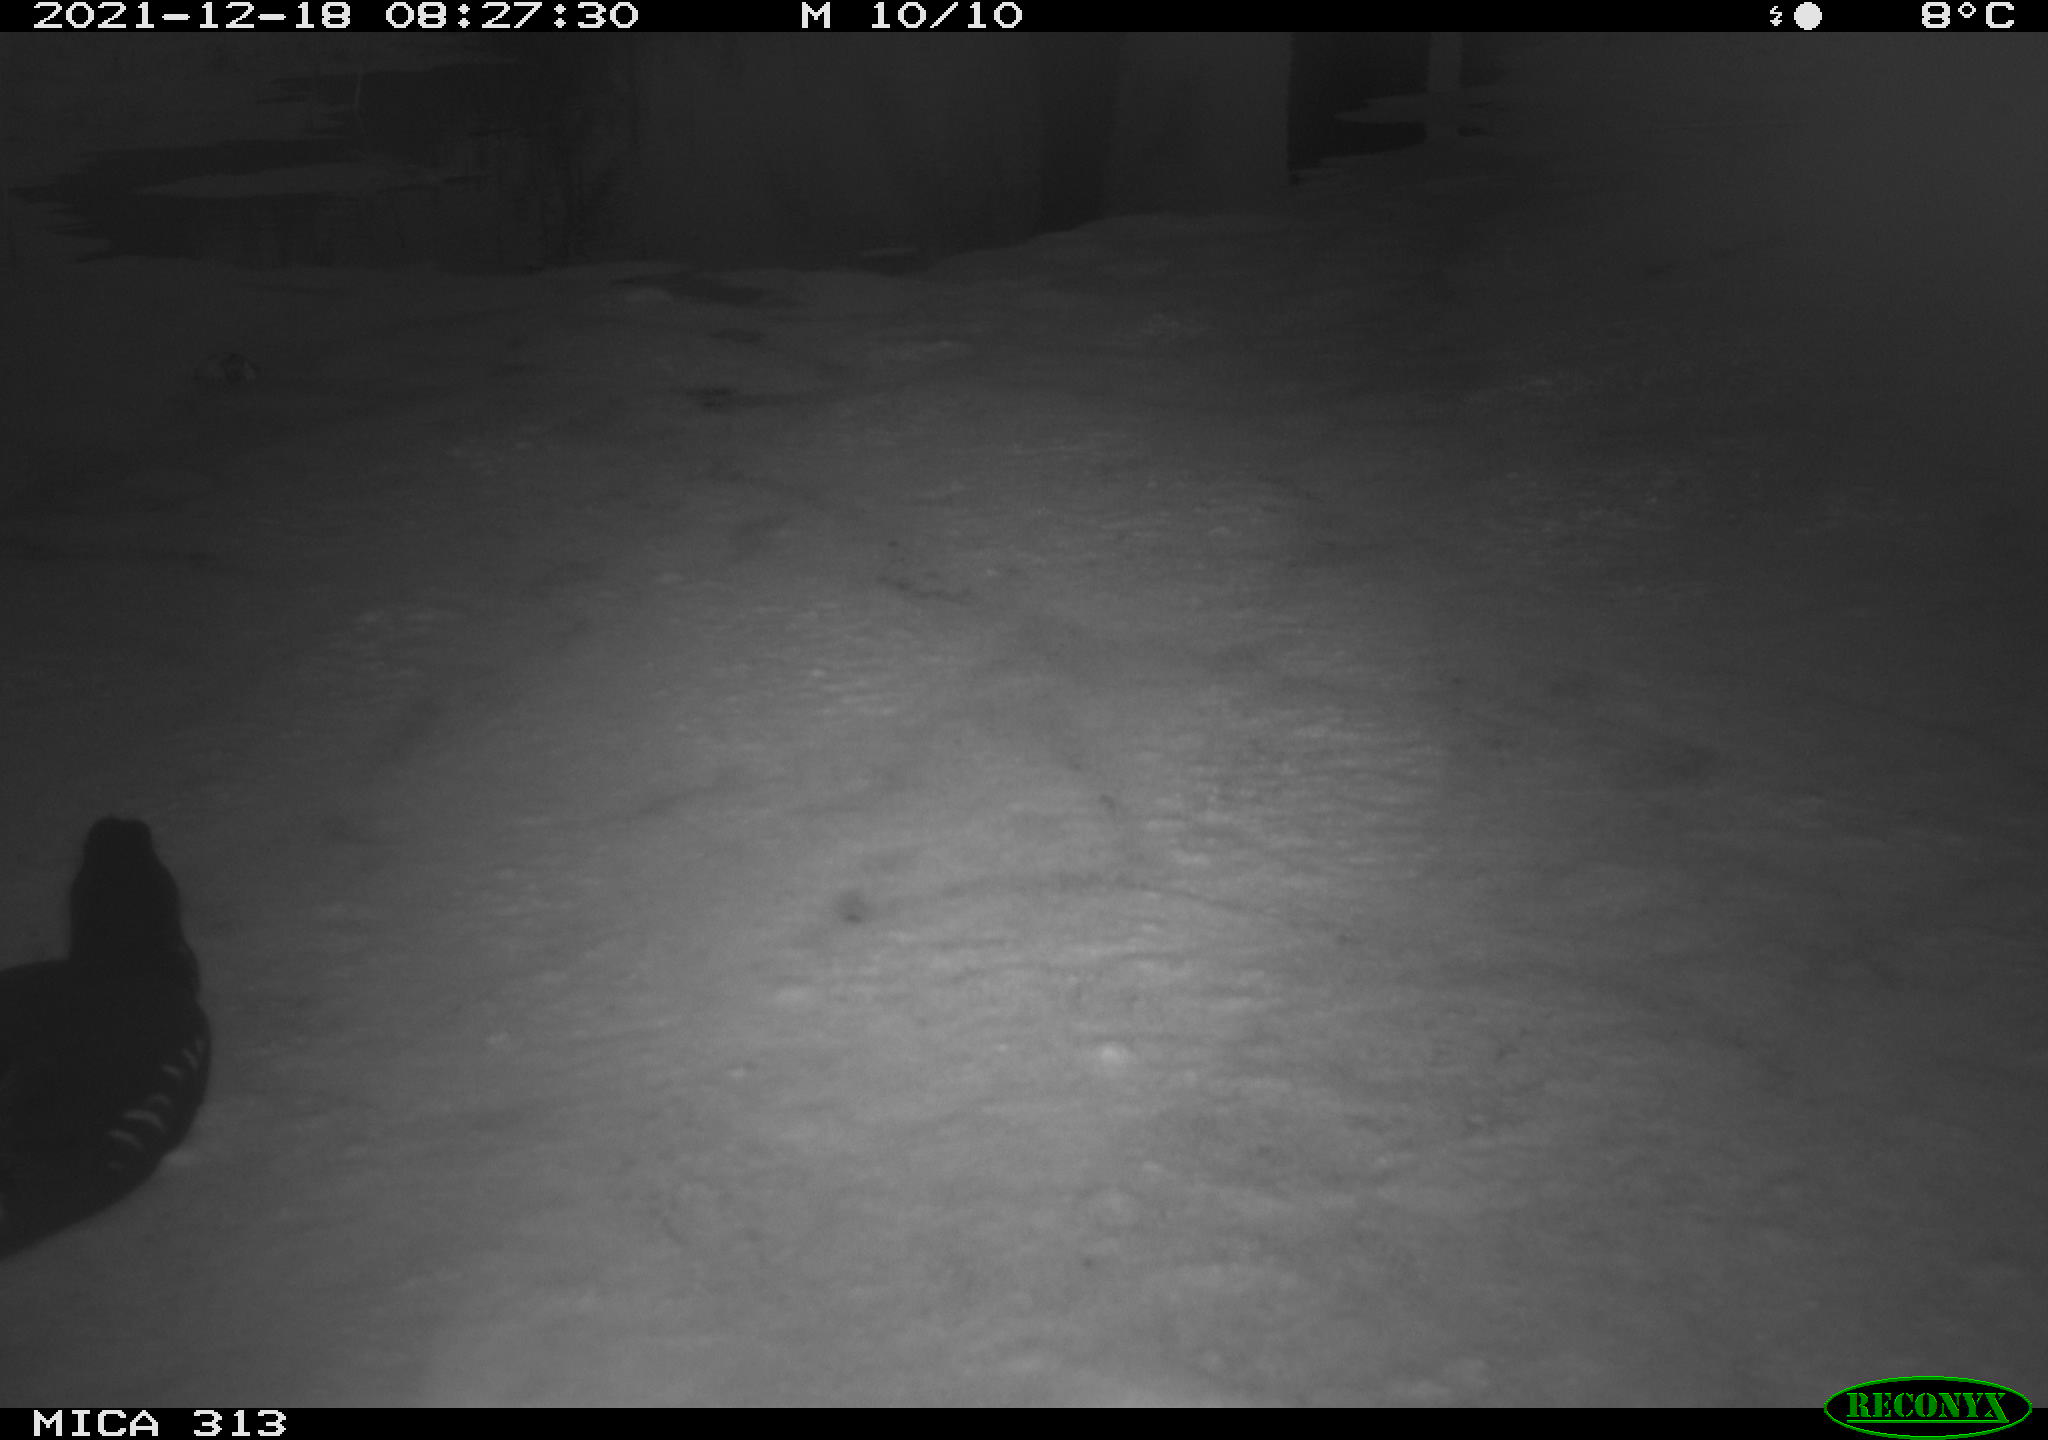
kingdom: Animalia
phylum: Chordata
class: Aves
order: Gruiformes
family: Rallidae
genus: Gallinula
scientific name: Gallinula chloropus
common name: Common moorhen
